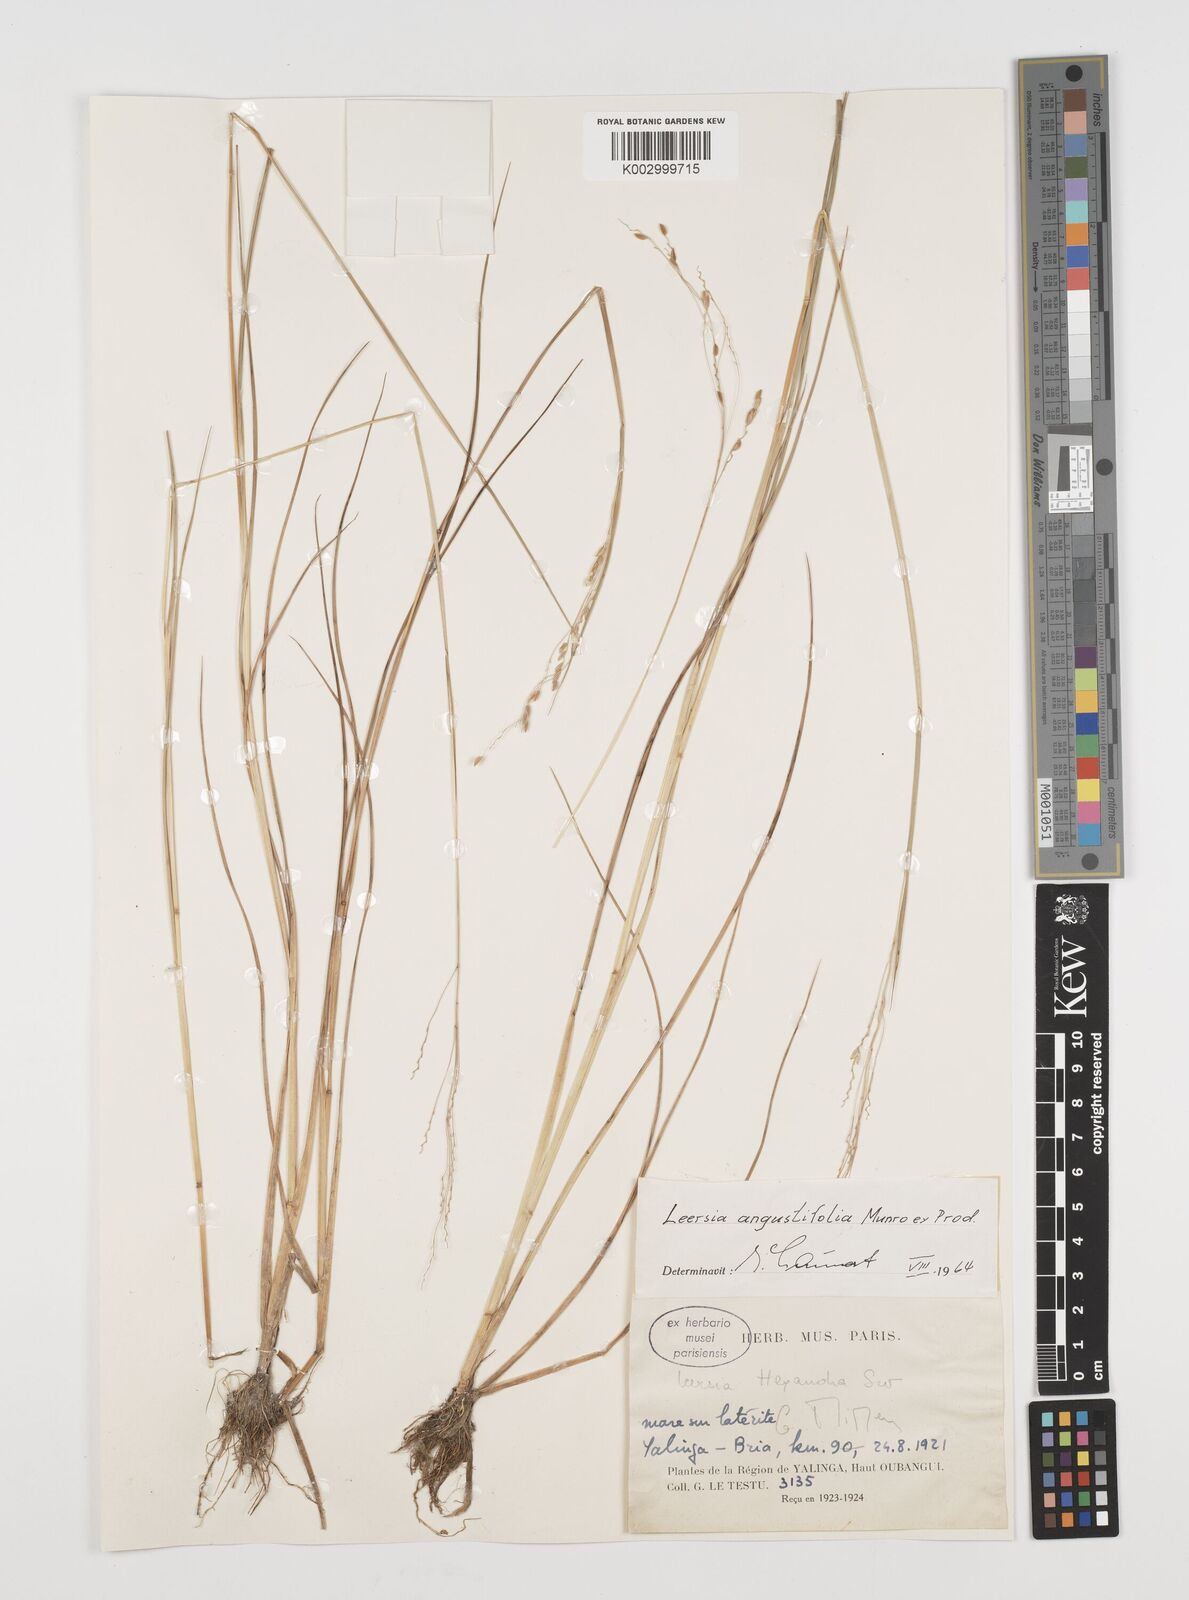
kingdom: Plantae
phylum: Tracheophyta
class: Liliopsida
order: Poales
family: Poaceae
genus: Leersia
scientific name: Leersia angustifolia
